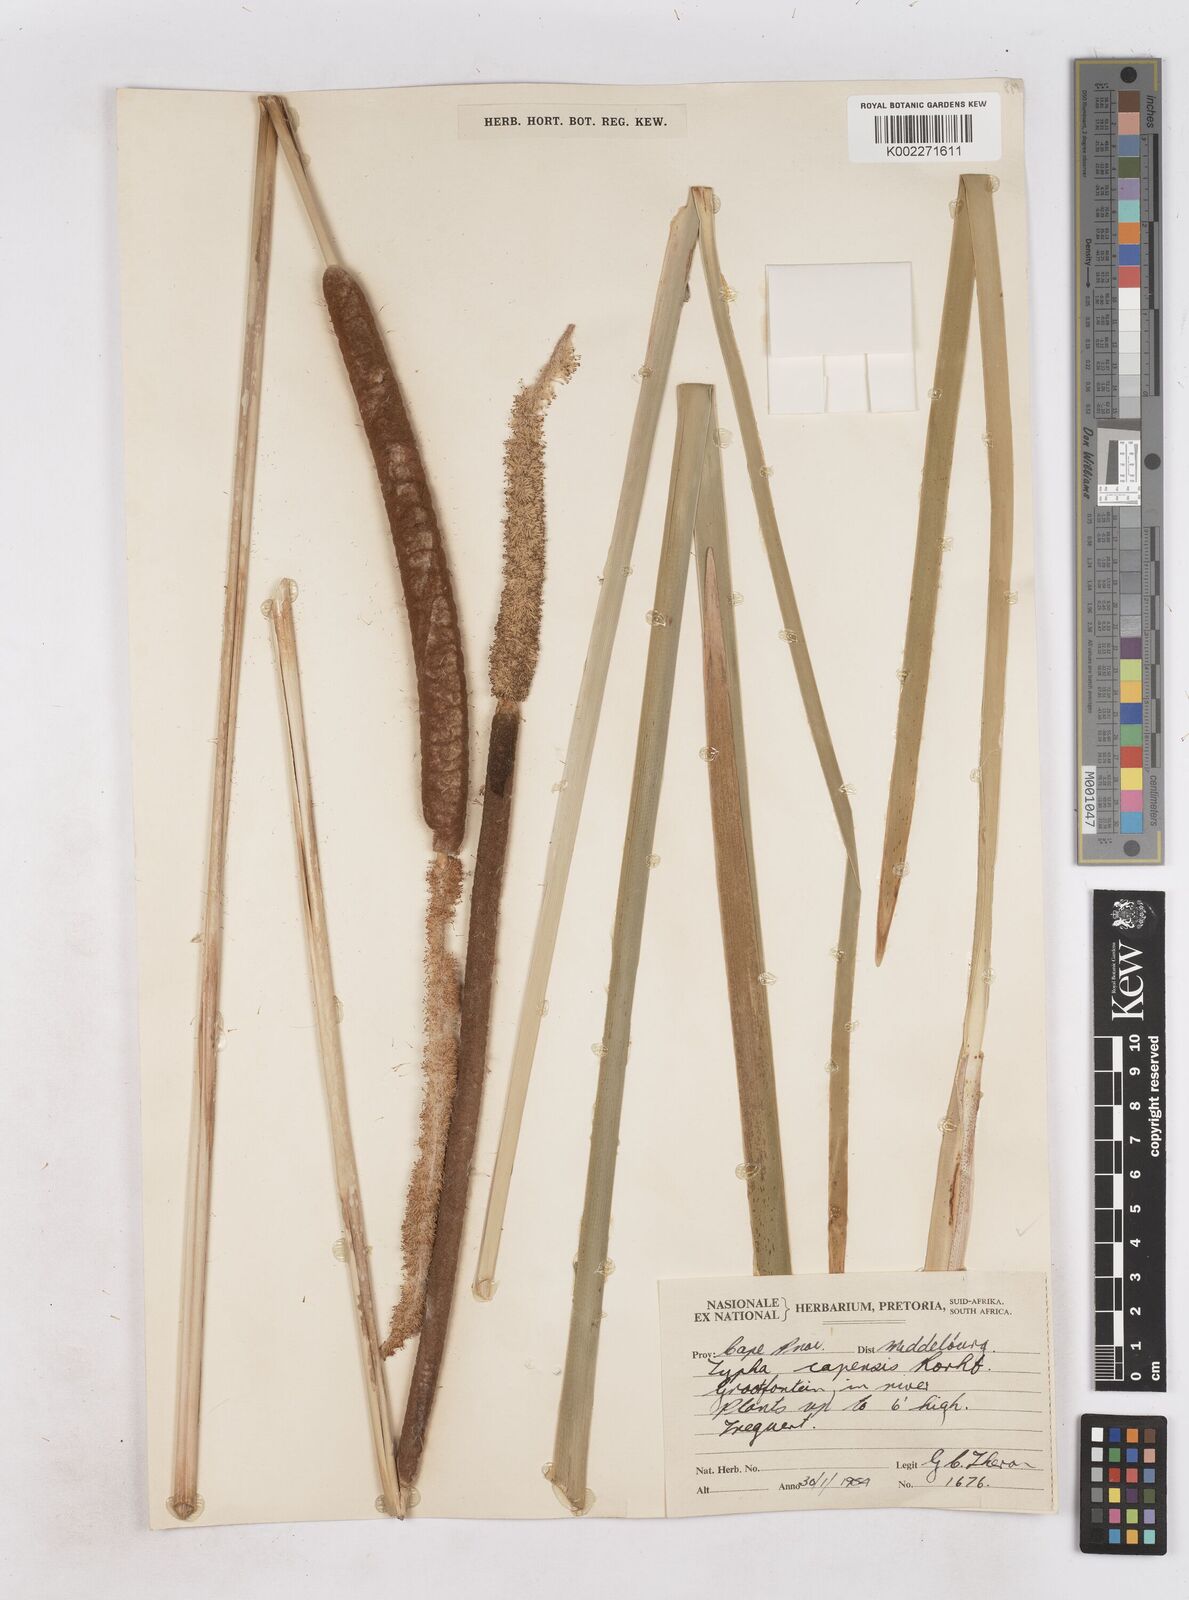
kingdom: Plantae
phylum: Tracheophyta
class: Liliopsida
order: Poales
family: Typhaceae
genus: Typha
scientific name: Typha capensis
